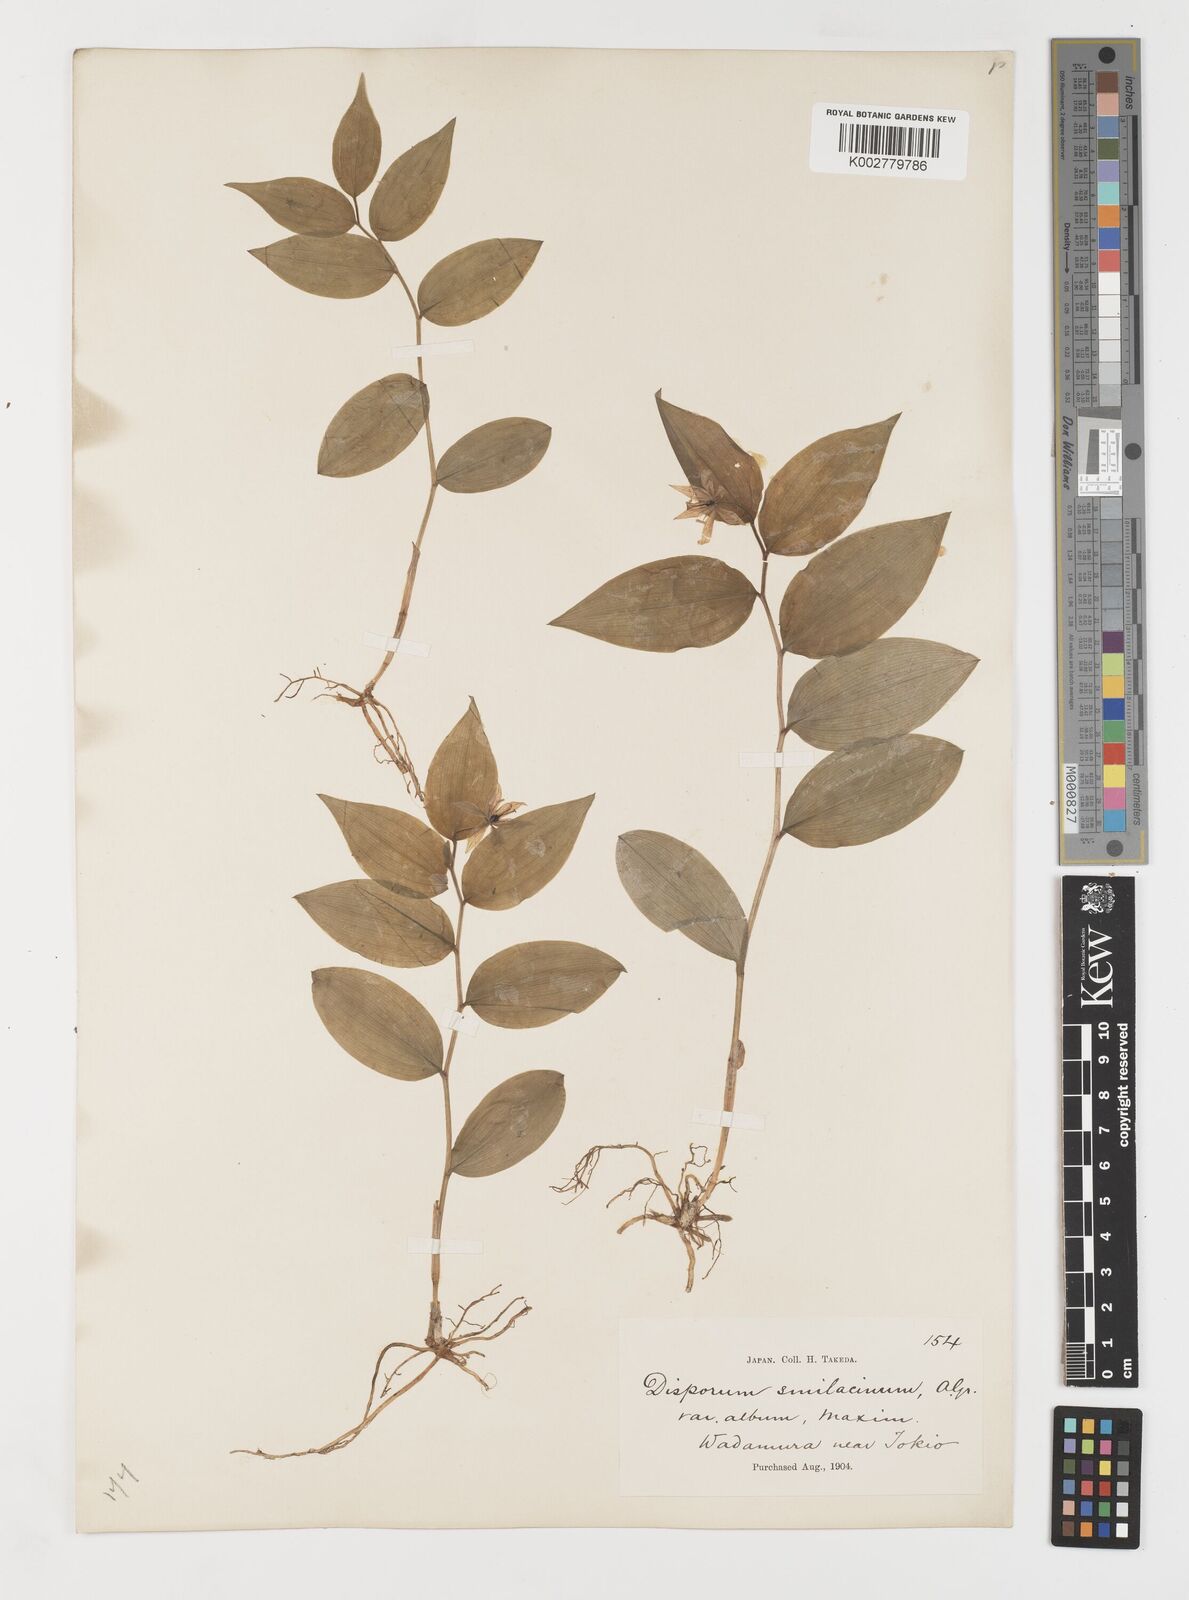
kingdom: Plantae
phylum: Tracheophyta
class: Liliopsida
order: Liliales
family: Colchicaceae
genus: Disporum
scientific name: Disporum smilacinum
